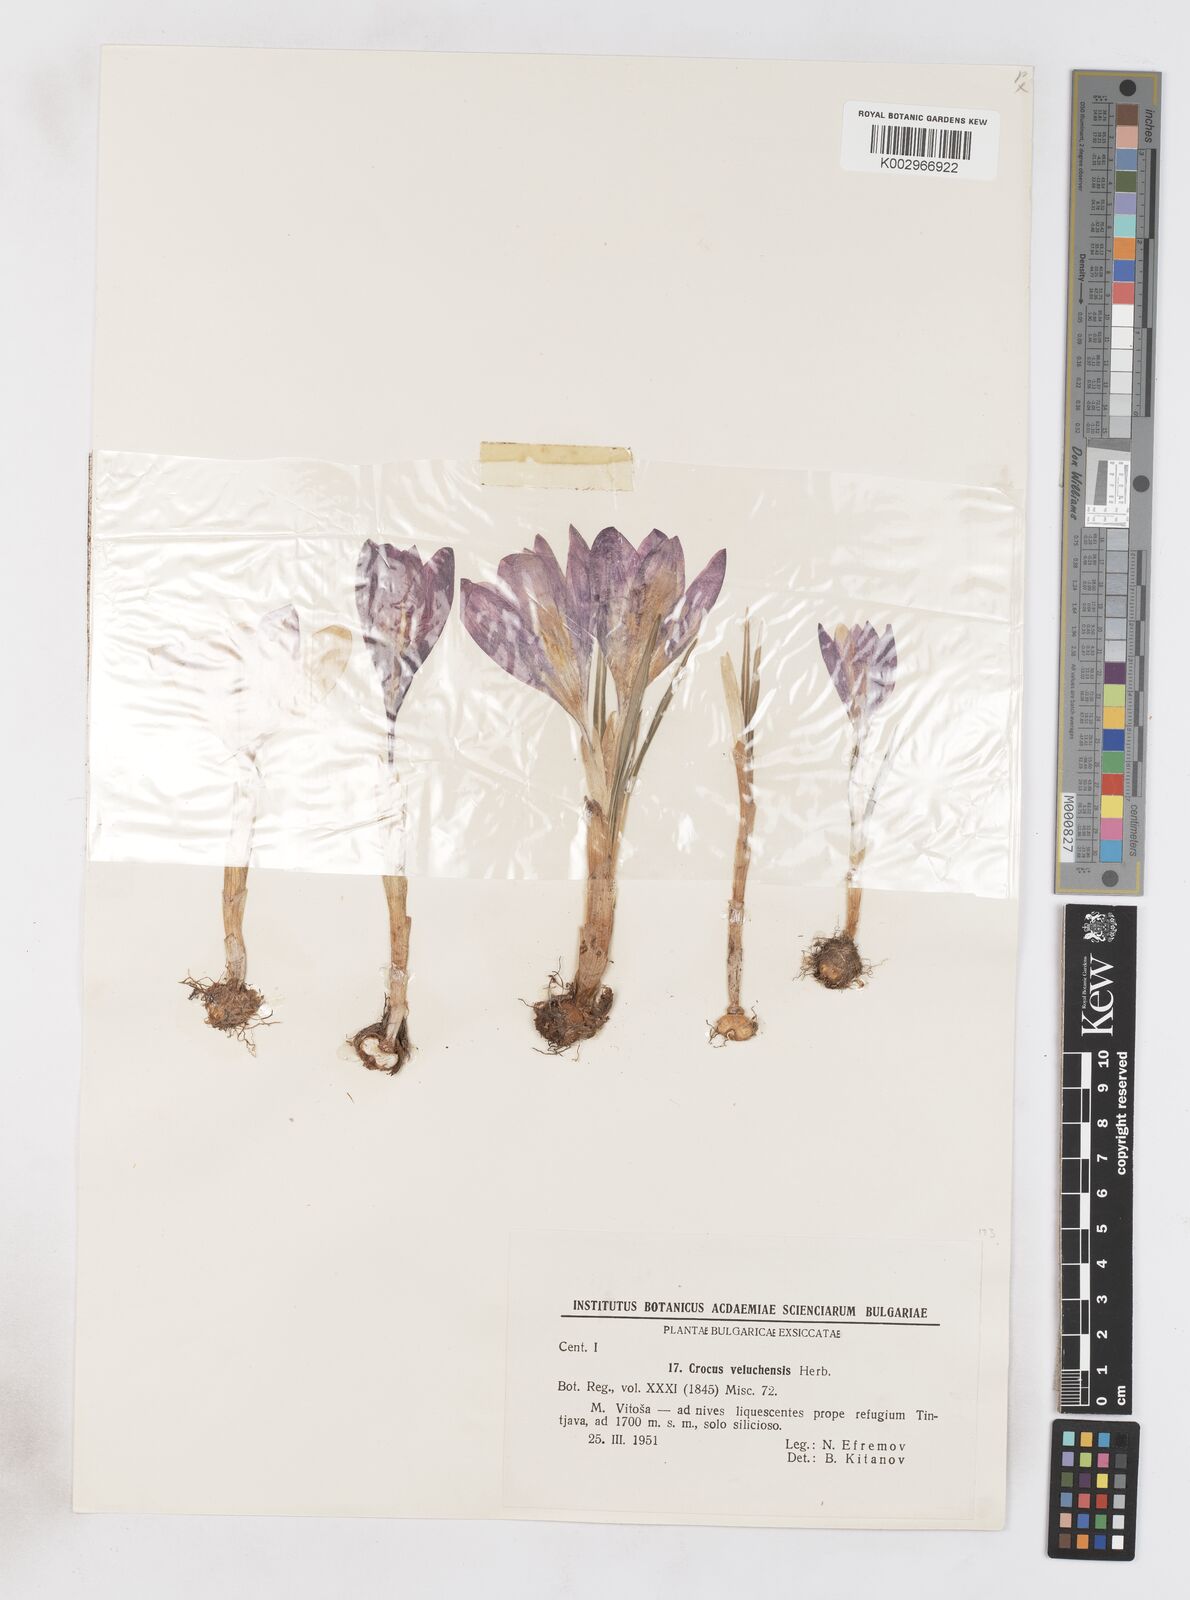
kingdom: Plantae
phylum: Tracheophyta
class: Liliopsida
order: Asparagales
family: Iridaceae
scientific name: Iridaceae
